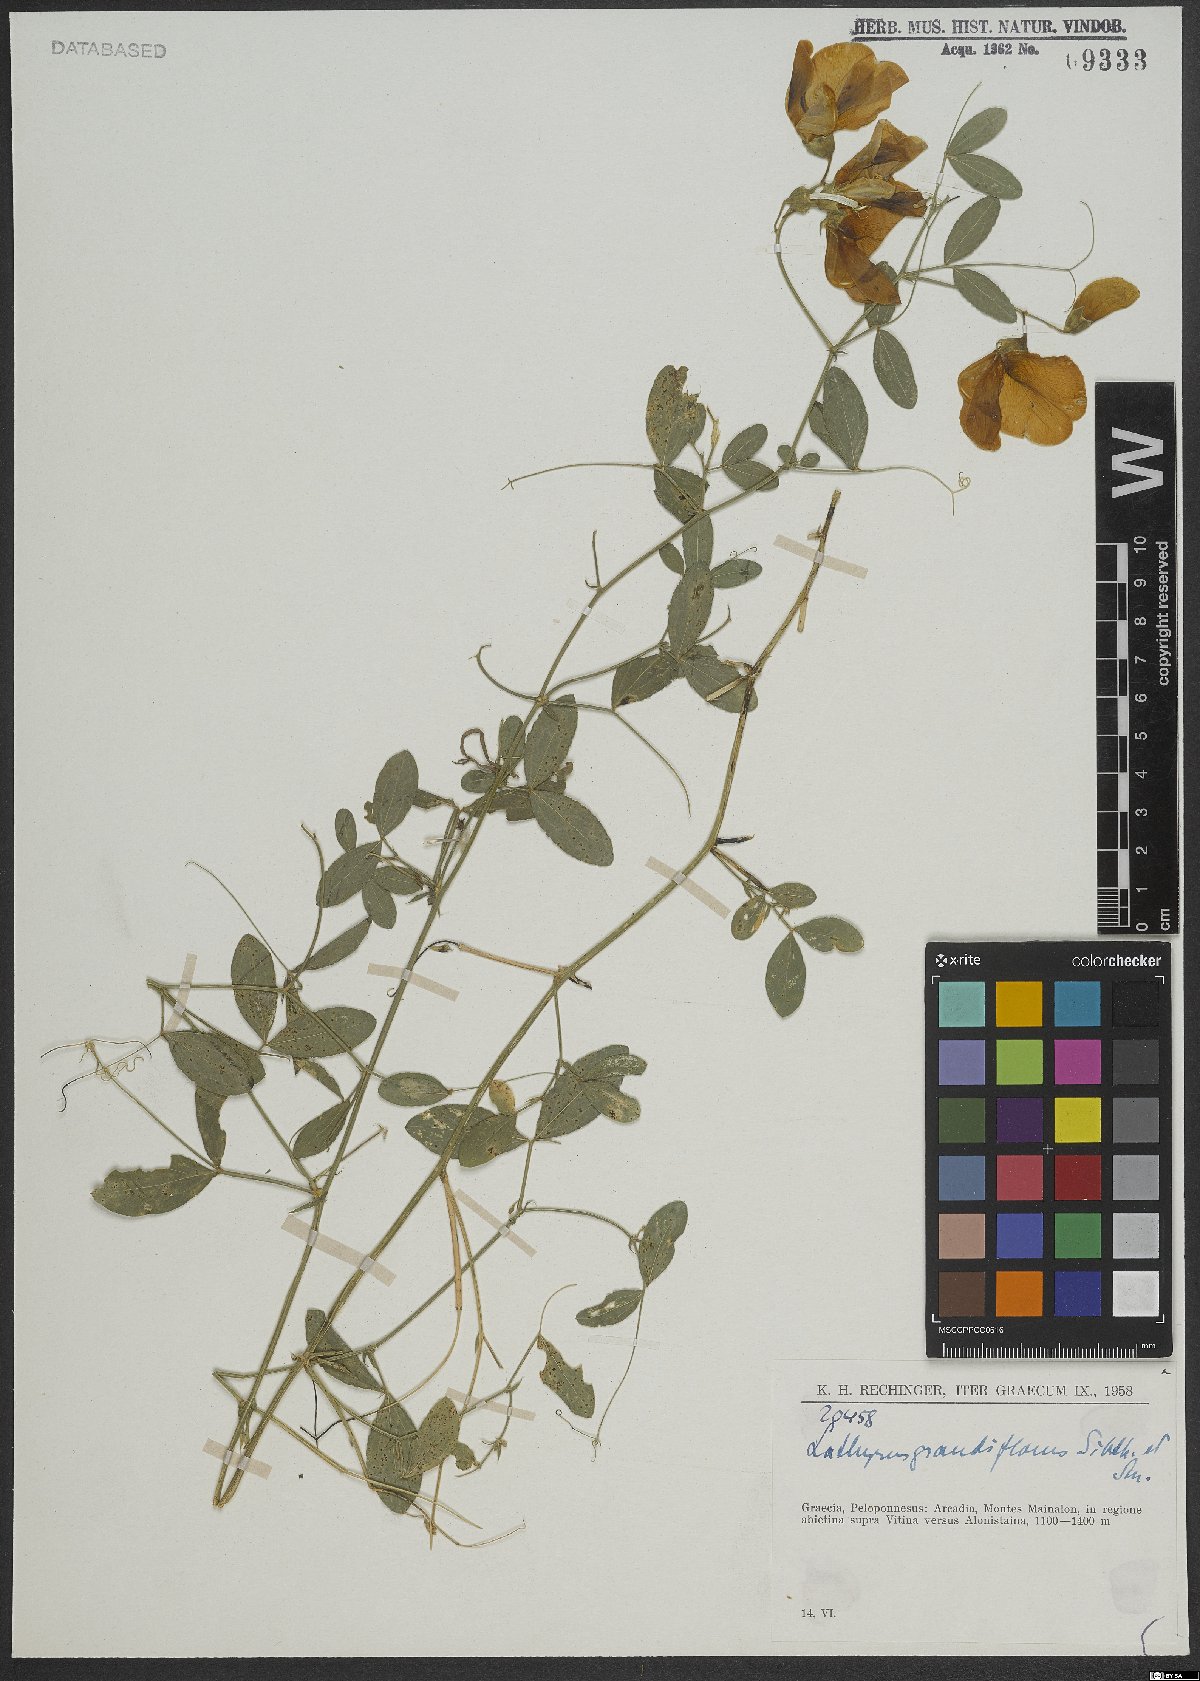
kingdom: Plantae
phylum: Tracheophyta
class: Magnoliopsida
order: Fabales
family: Fabaceae
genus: Lathyrus
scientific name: Lathyrus grandiflorus
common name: Two-flowered everlasting-pea
